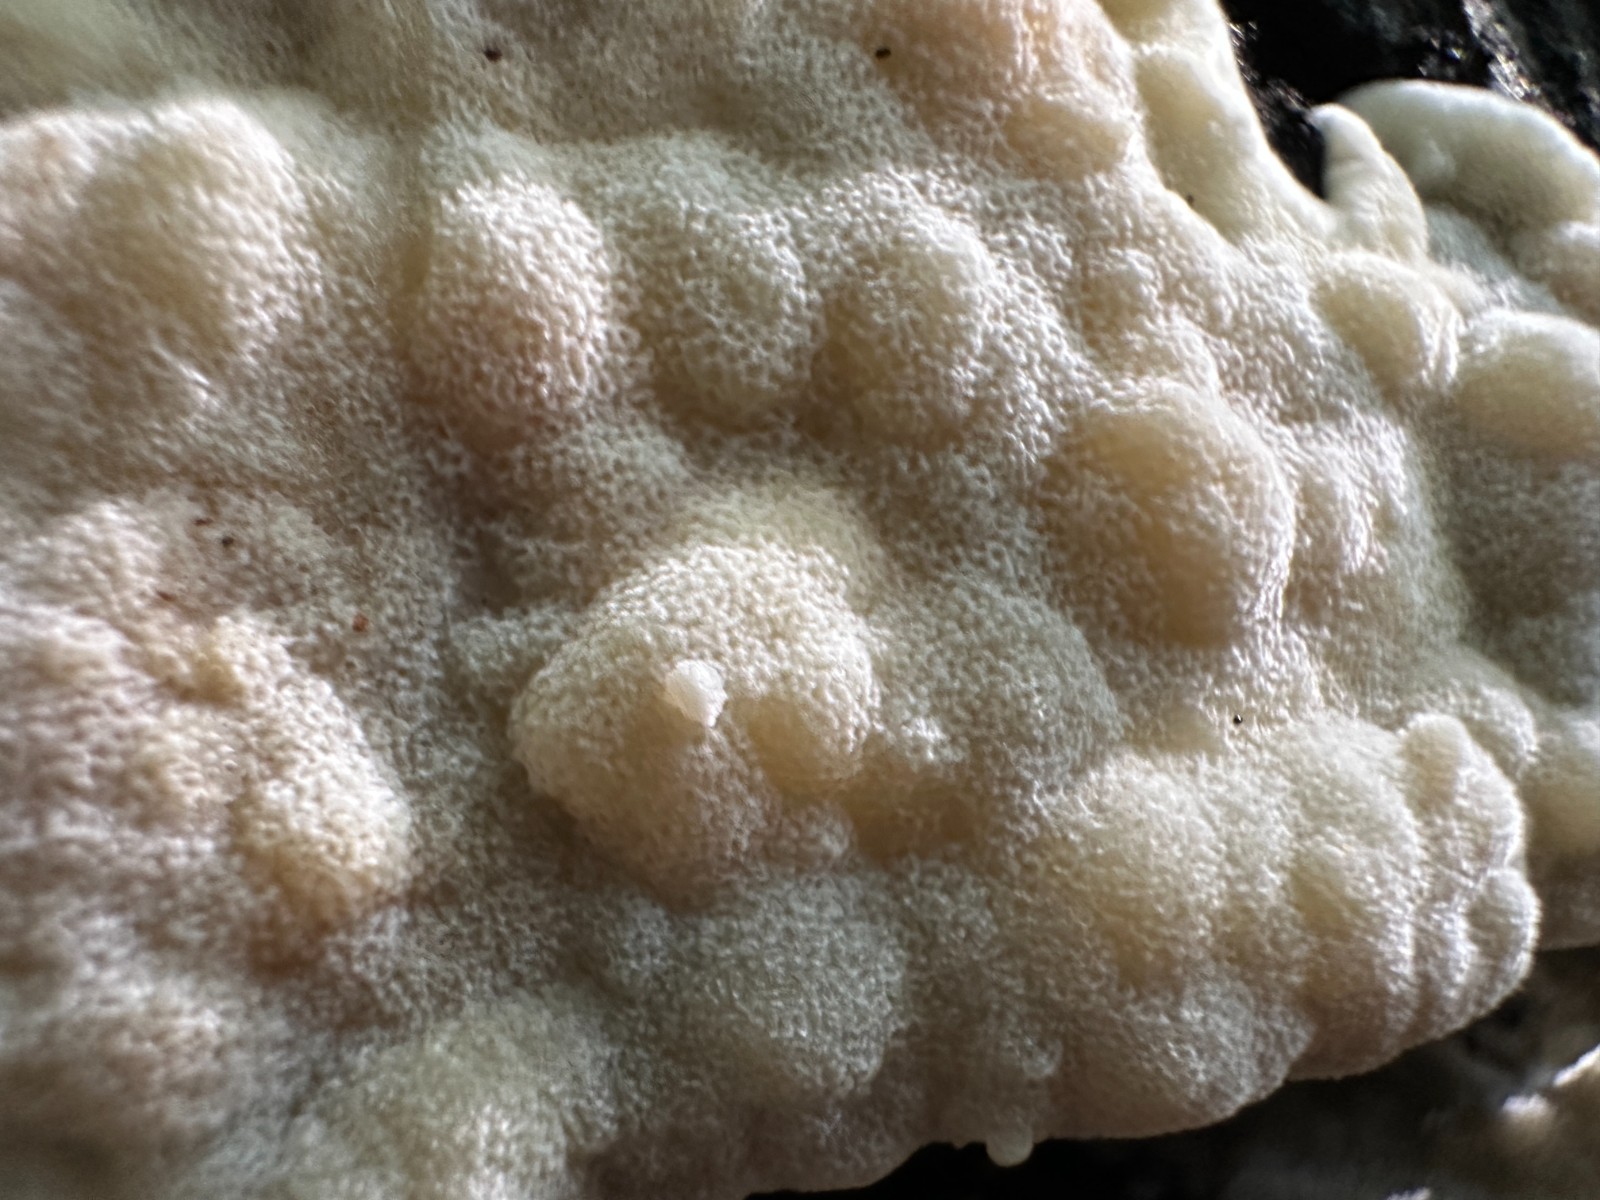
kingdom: Fungi
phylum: Basidiomycota
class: Agaricomycetes
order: Polyporales
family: Meruliaceae
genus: Physisporinus
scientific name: Physisporinus vitreus
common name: mastesvamp
